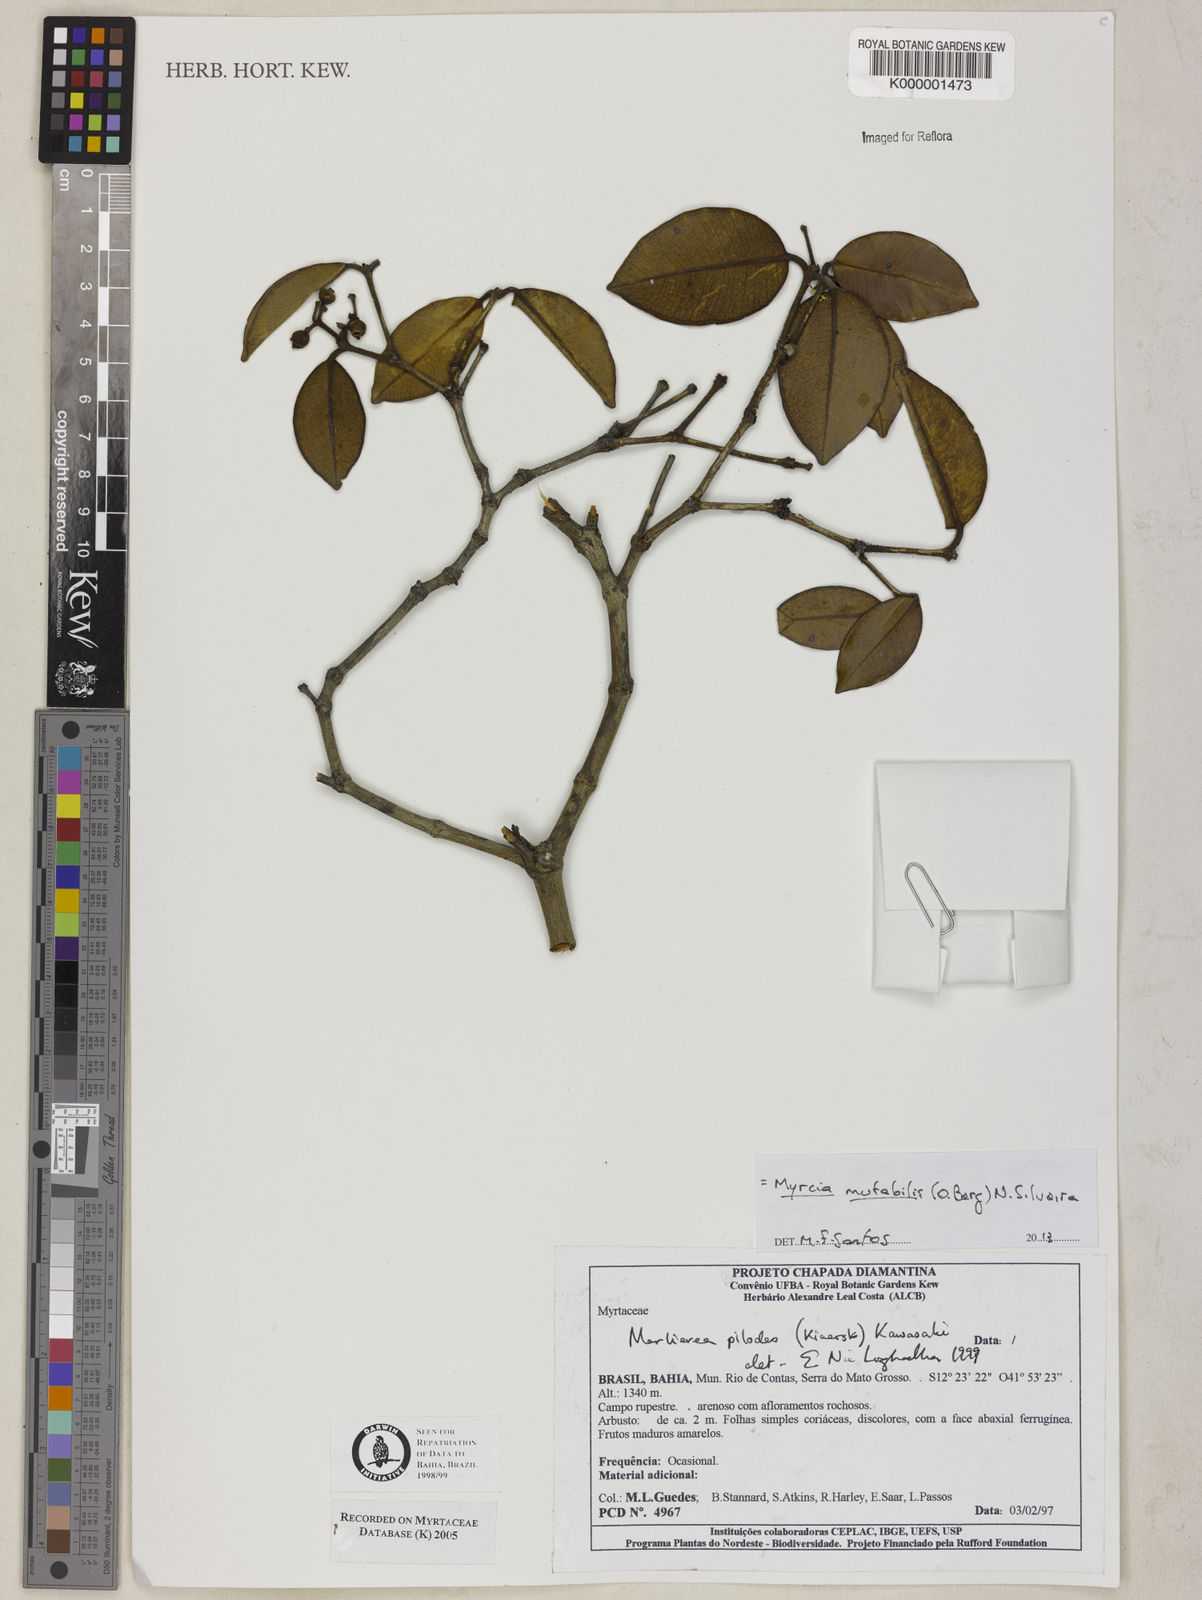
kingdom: Plantae
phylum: Tracheophyta
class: Magnoliopsida
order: Myrtales
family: Myrtaceae
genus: Myrcia
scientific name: Myrcia mutabilis
